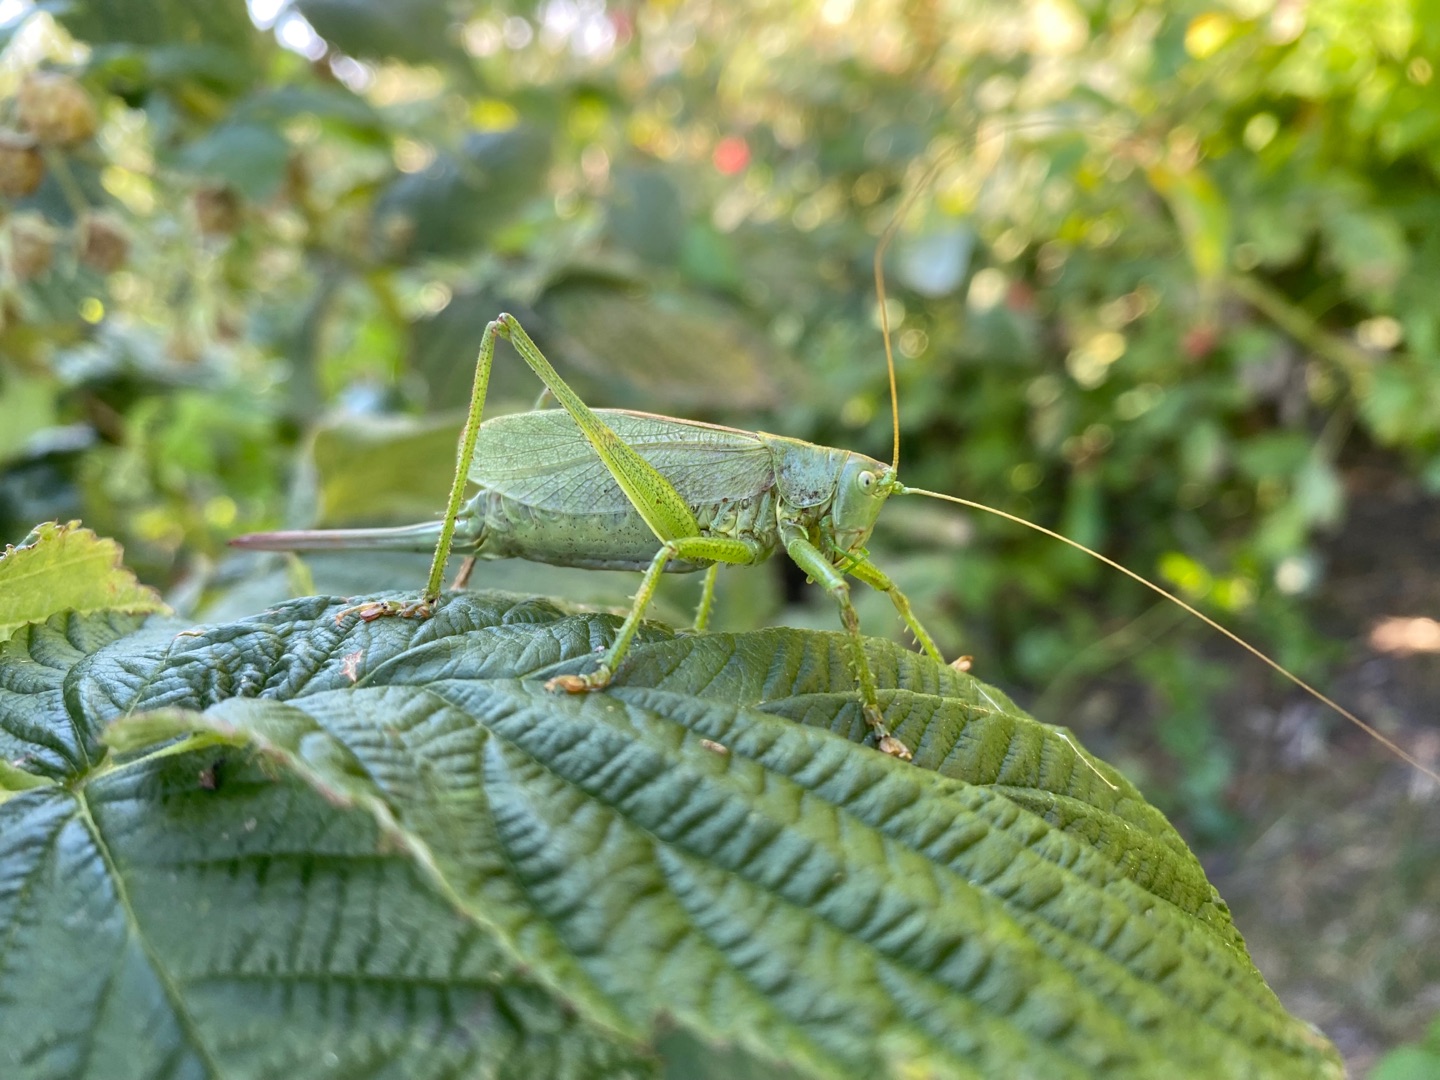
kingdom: Animalia
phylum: Arthropoda
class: Insecta
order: Orthoptera
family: Tettigoniidae
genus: Tettigonia
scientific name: Tettigonia cantans
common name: Syngende løvgræshoppe
